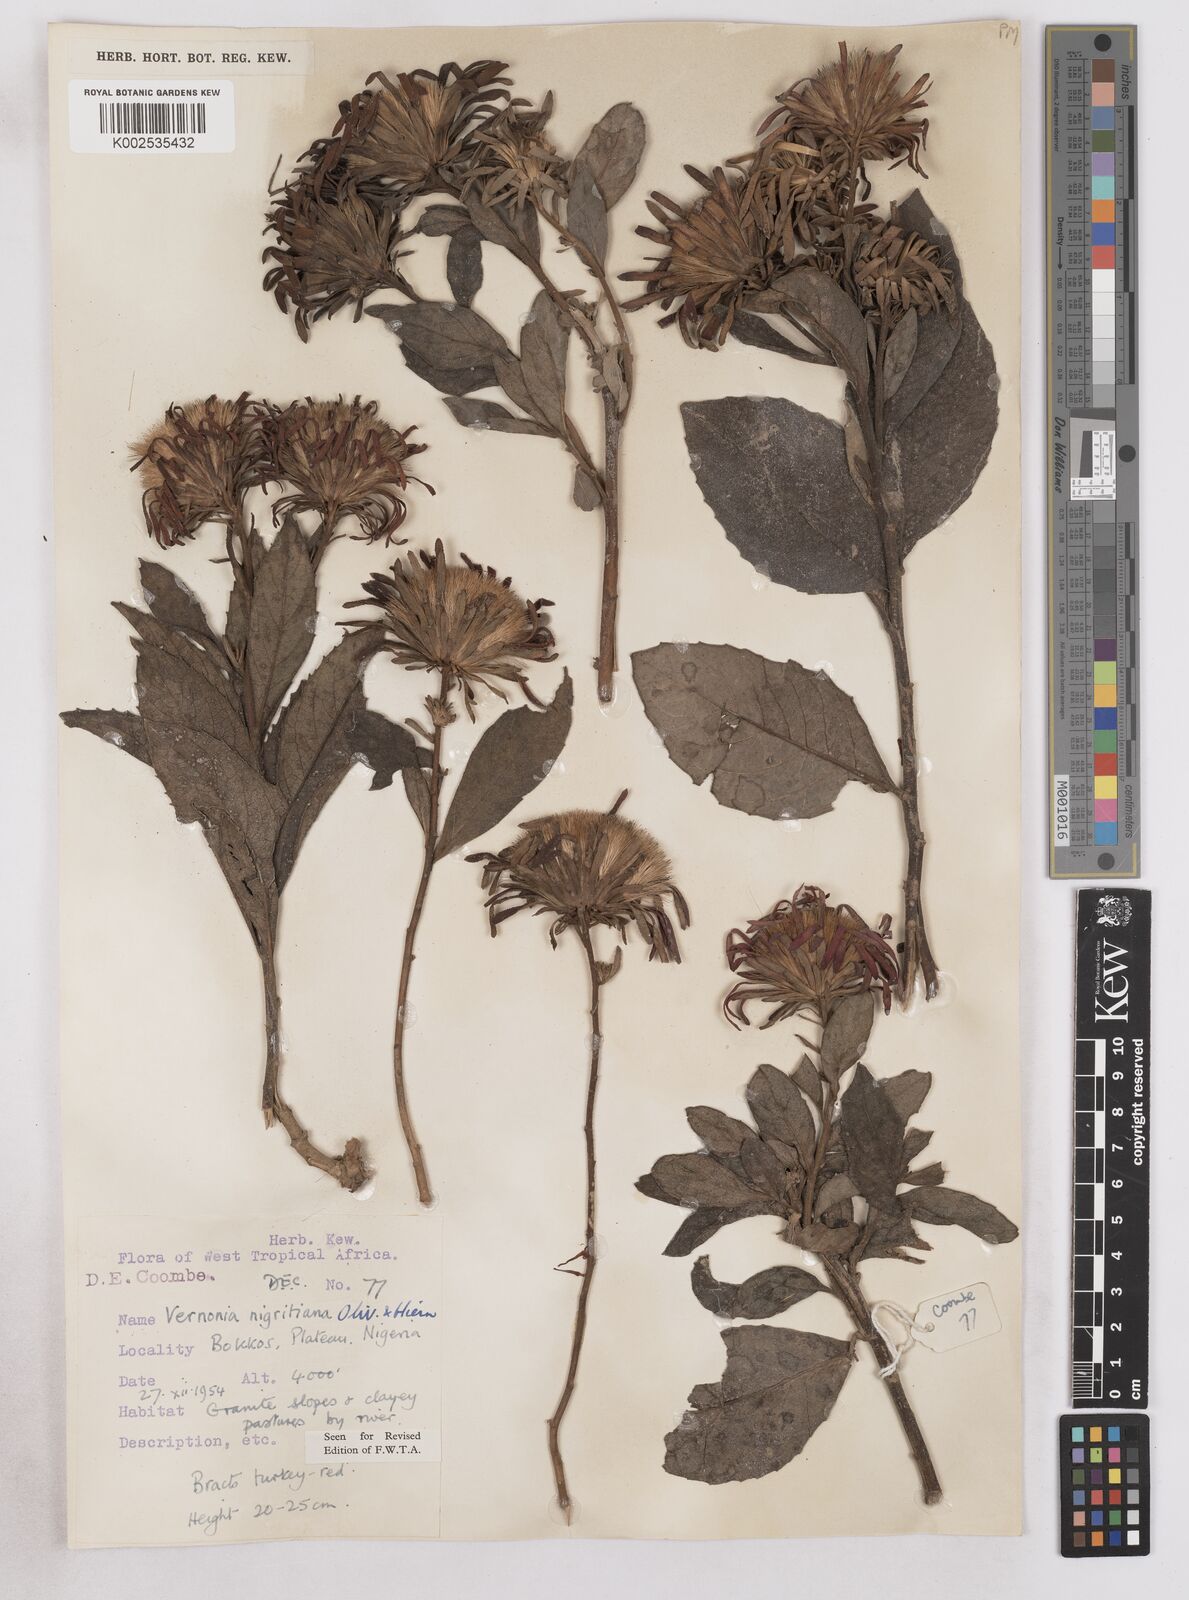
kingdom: Plantae
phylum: Tracheophyta
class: Magnoliopsida
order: Asterales
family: Asteraceae
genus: Linzia
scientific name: Linzia nigritiana
